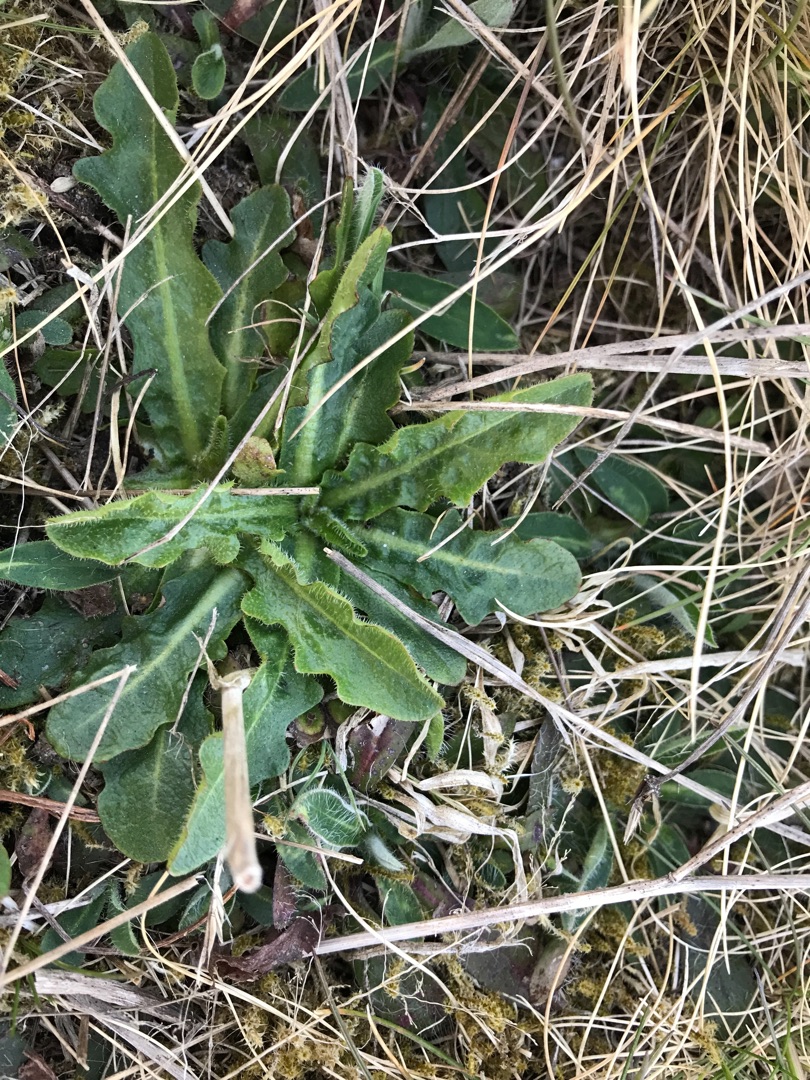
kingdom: Plantae
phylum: Tracheophyta
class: Magnoliopsida
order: Asterales
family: Asteraceae
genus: Hypochaeris
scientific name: Hypochaeris radicata
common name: Almindelig kongepen
